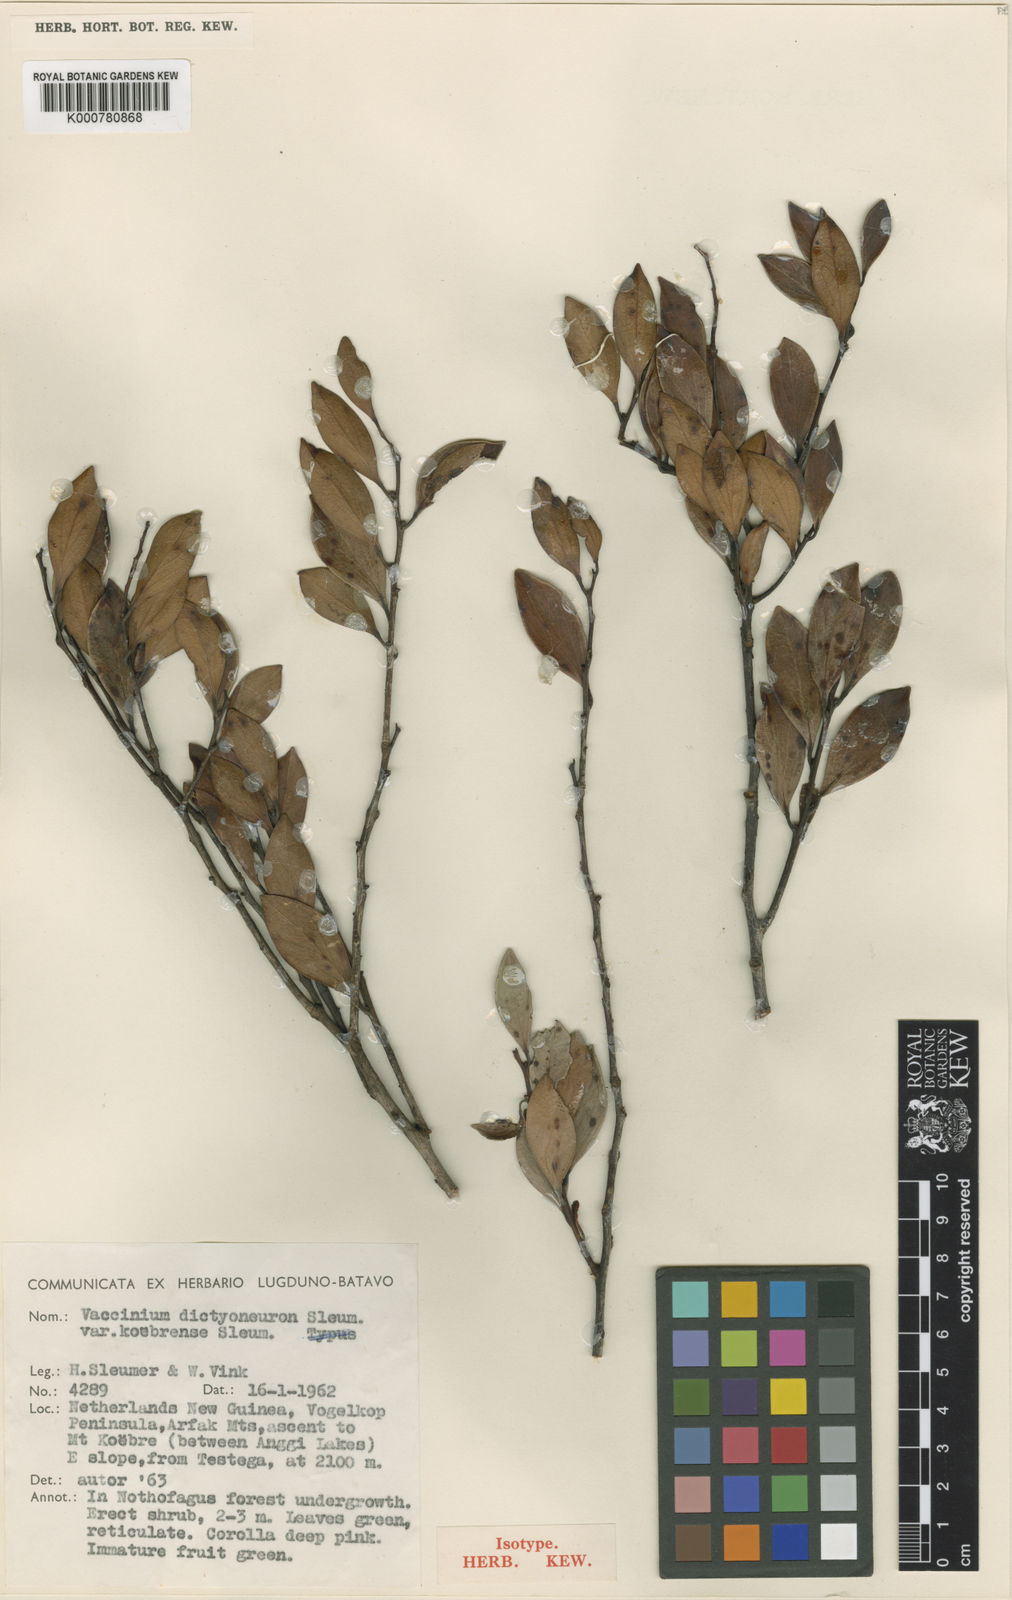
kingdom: Plantae
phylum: Tracheophyta
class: Magnoliopsida
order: Ericales
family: Ericaceae
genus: Vaccinium
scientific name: Vaccinium dictyoneuron
